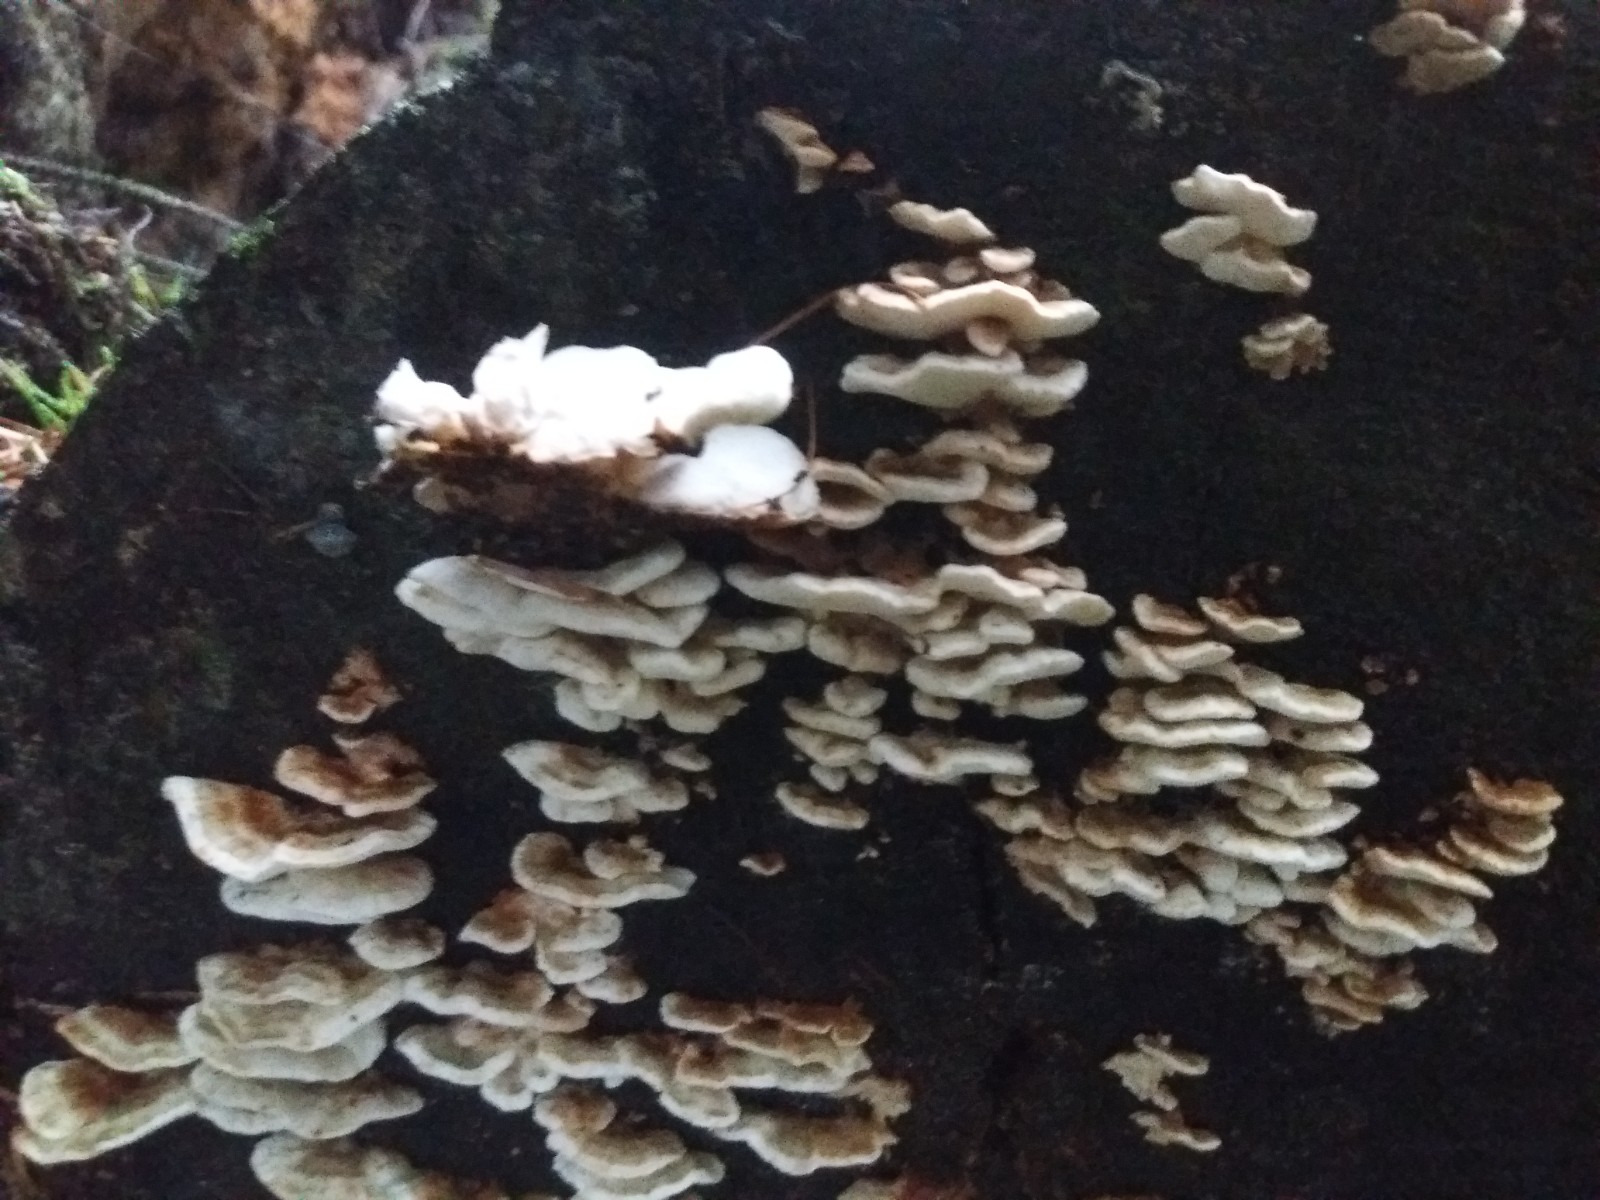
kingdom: Fungi
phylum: Basidiomycota
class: Agaricomycetes
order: Polyporales
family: Dacryobolaceae
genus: Oligoporus
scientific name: Oligoporus wakefieldiae
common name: række-kødporesvamp
